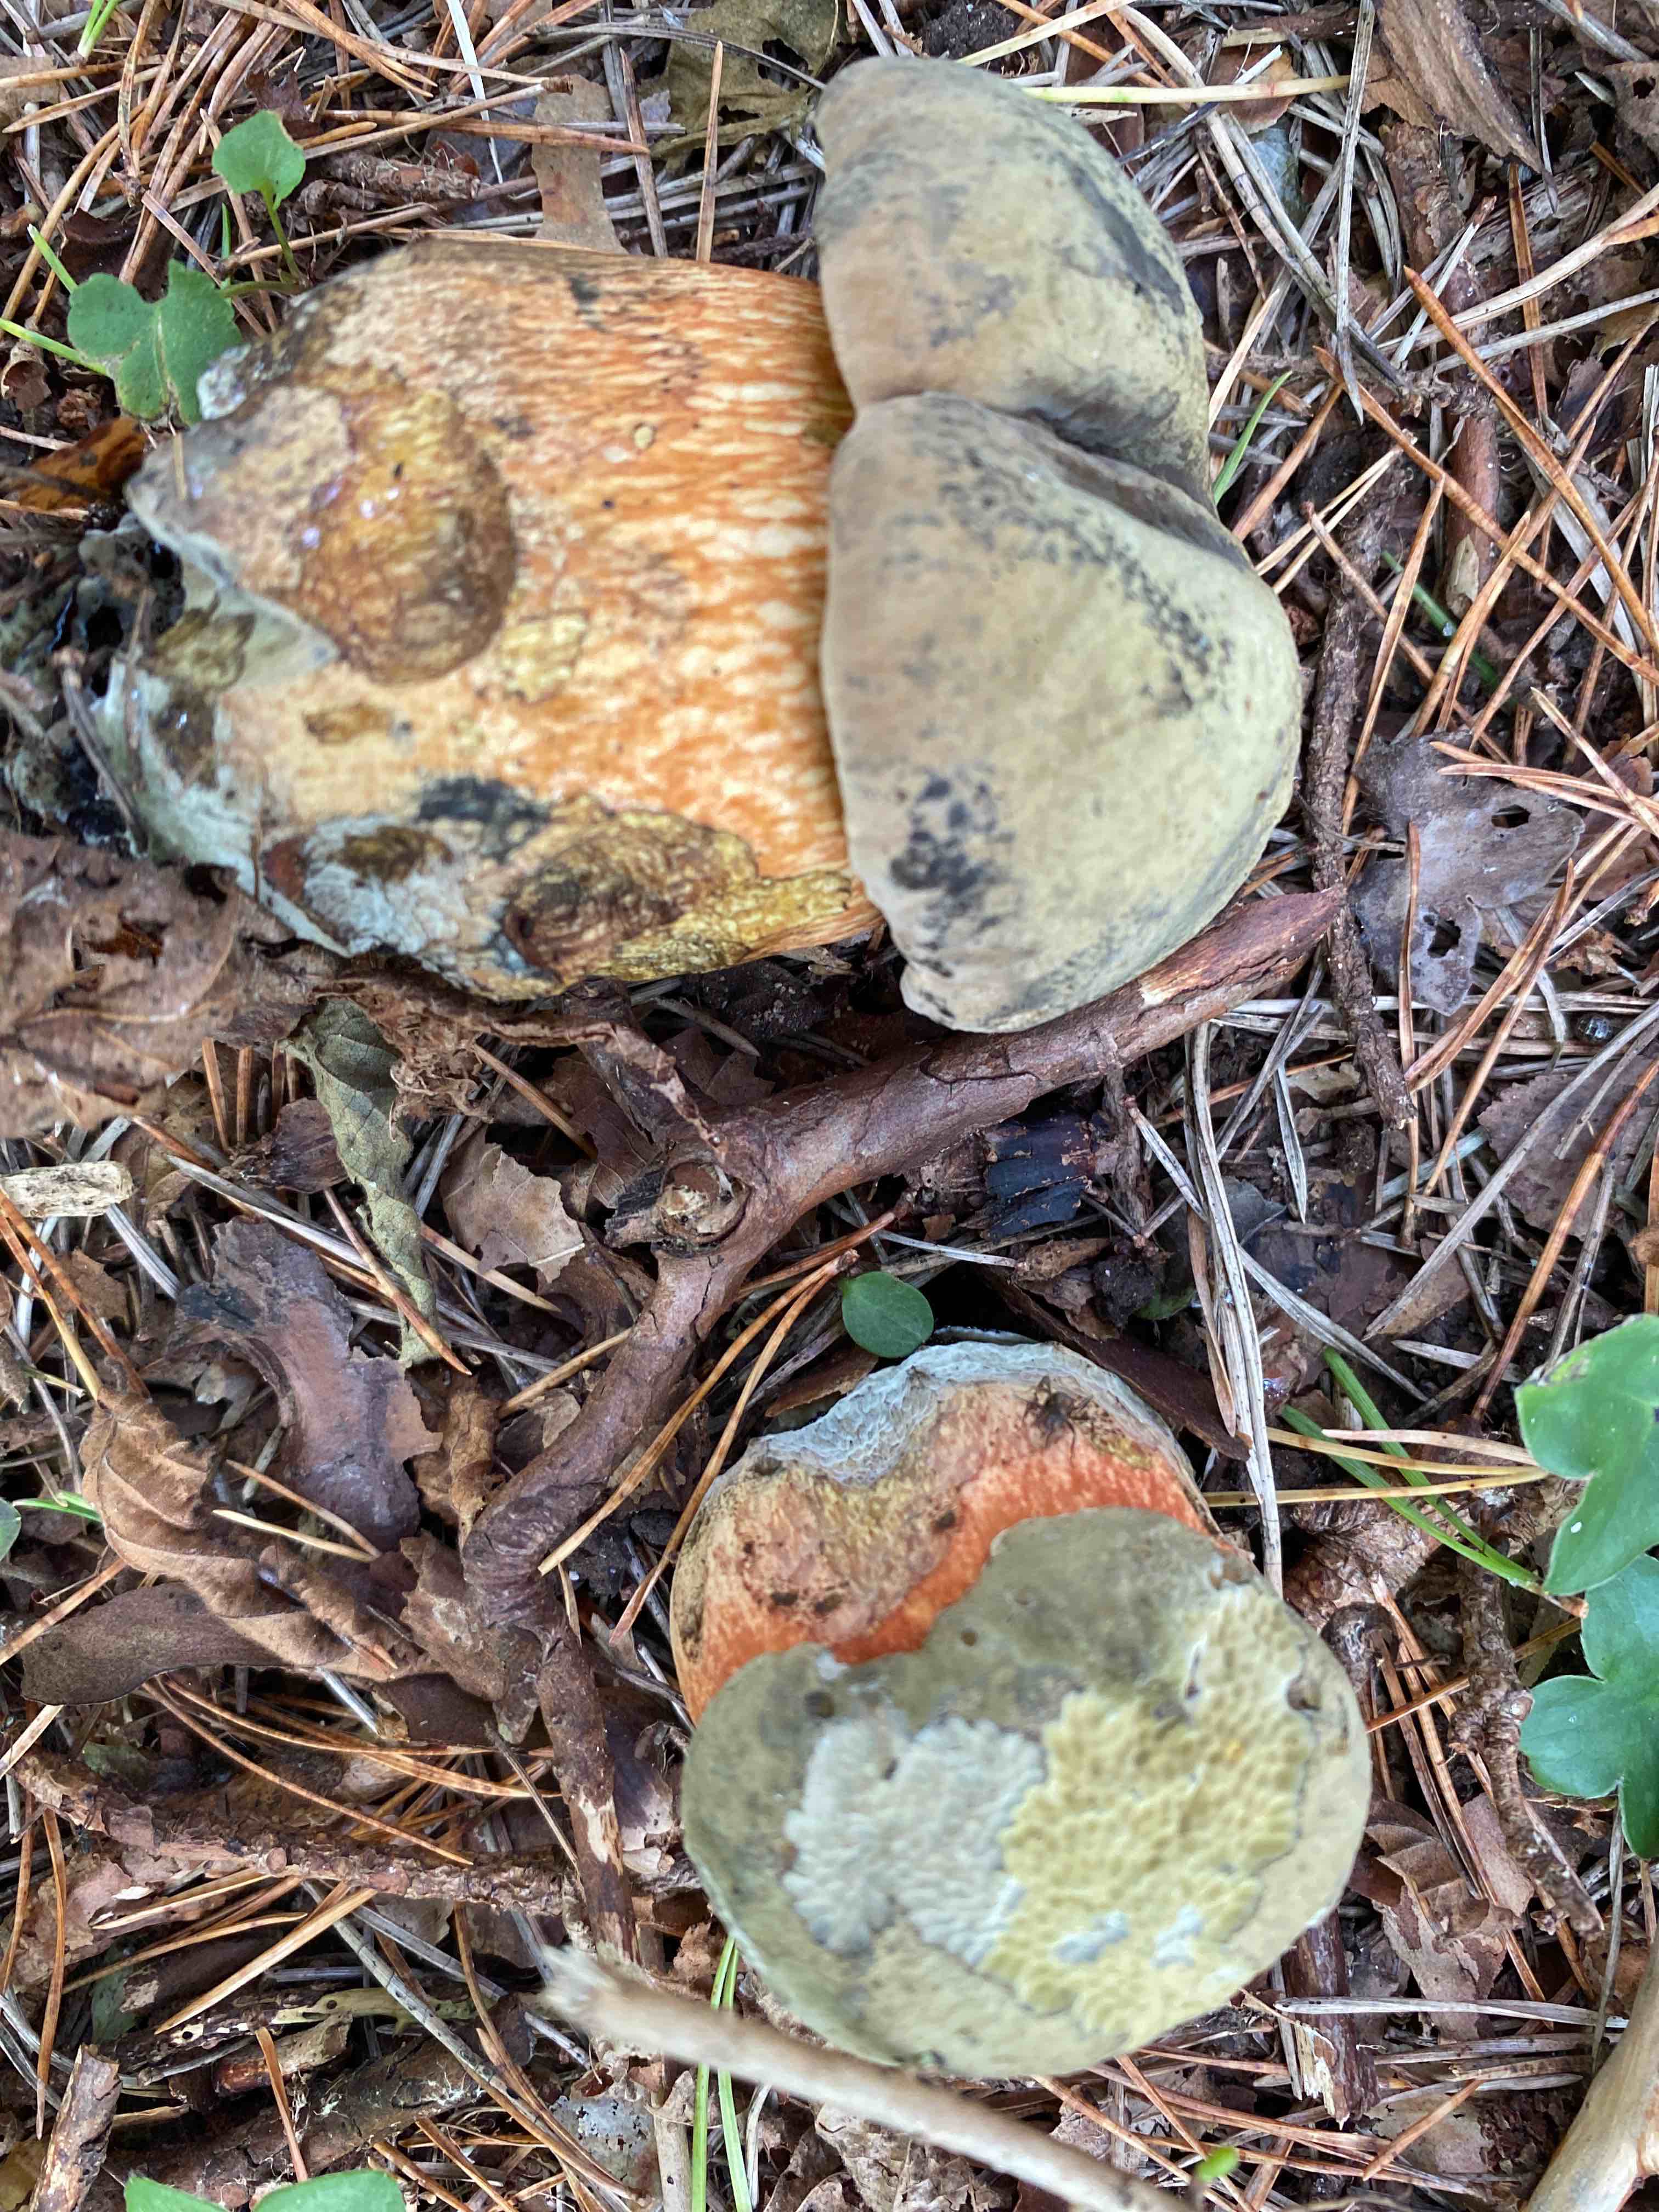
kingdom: Fungi
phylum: Basidiomycota
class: Agaricomycetes
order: Boletales
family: Boletaceae
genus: Suillellus
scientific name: Suillellus luridus
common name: netstokket indigorørhat
